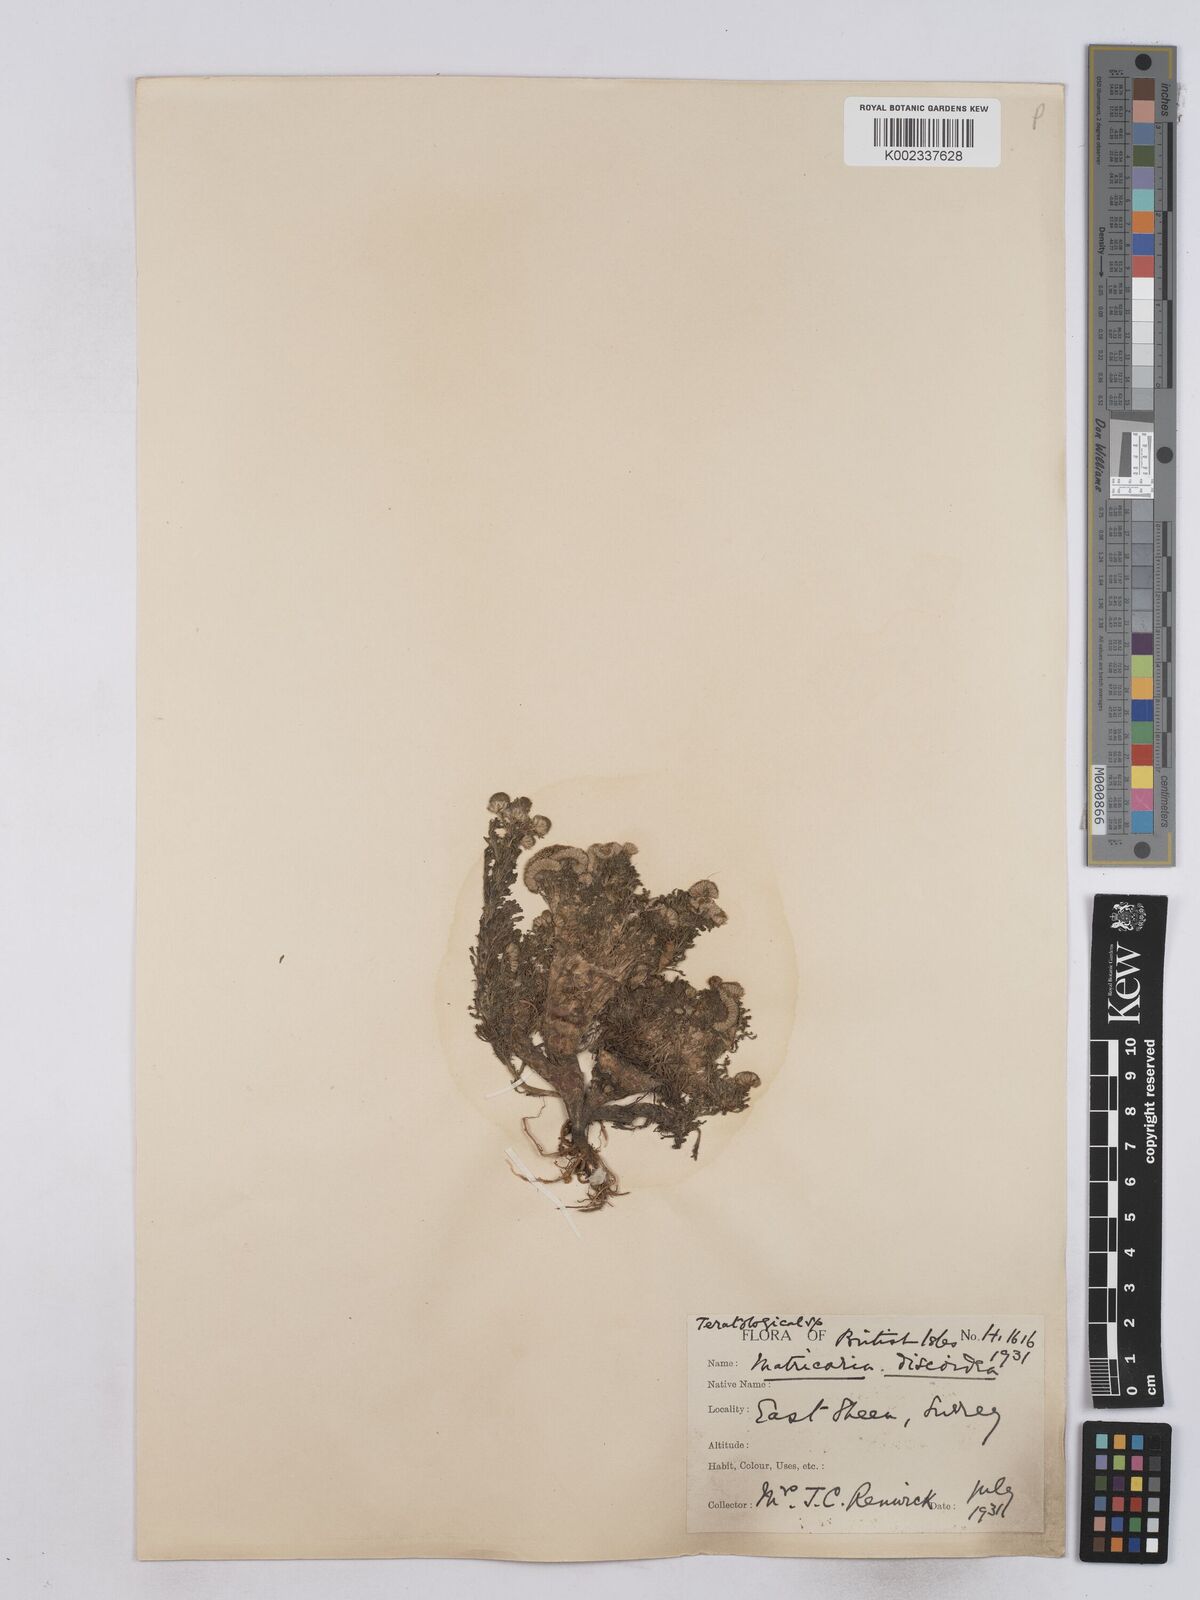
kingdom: Plantae
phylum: Tracheophyta
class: Magnoliopsida
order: Asterales
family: Asteraceae
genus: Matricaria
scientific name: Matricaria discoidea
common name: Disc mayweed
